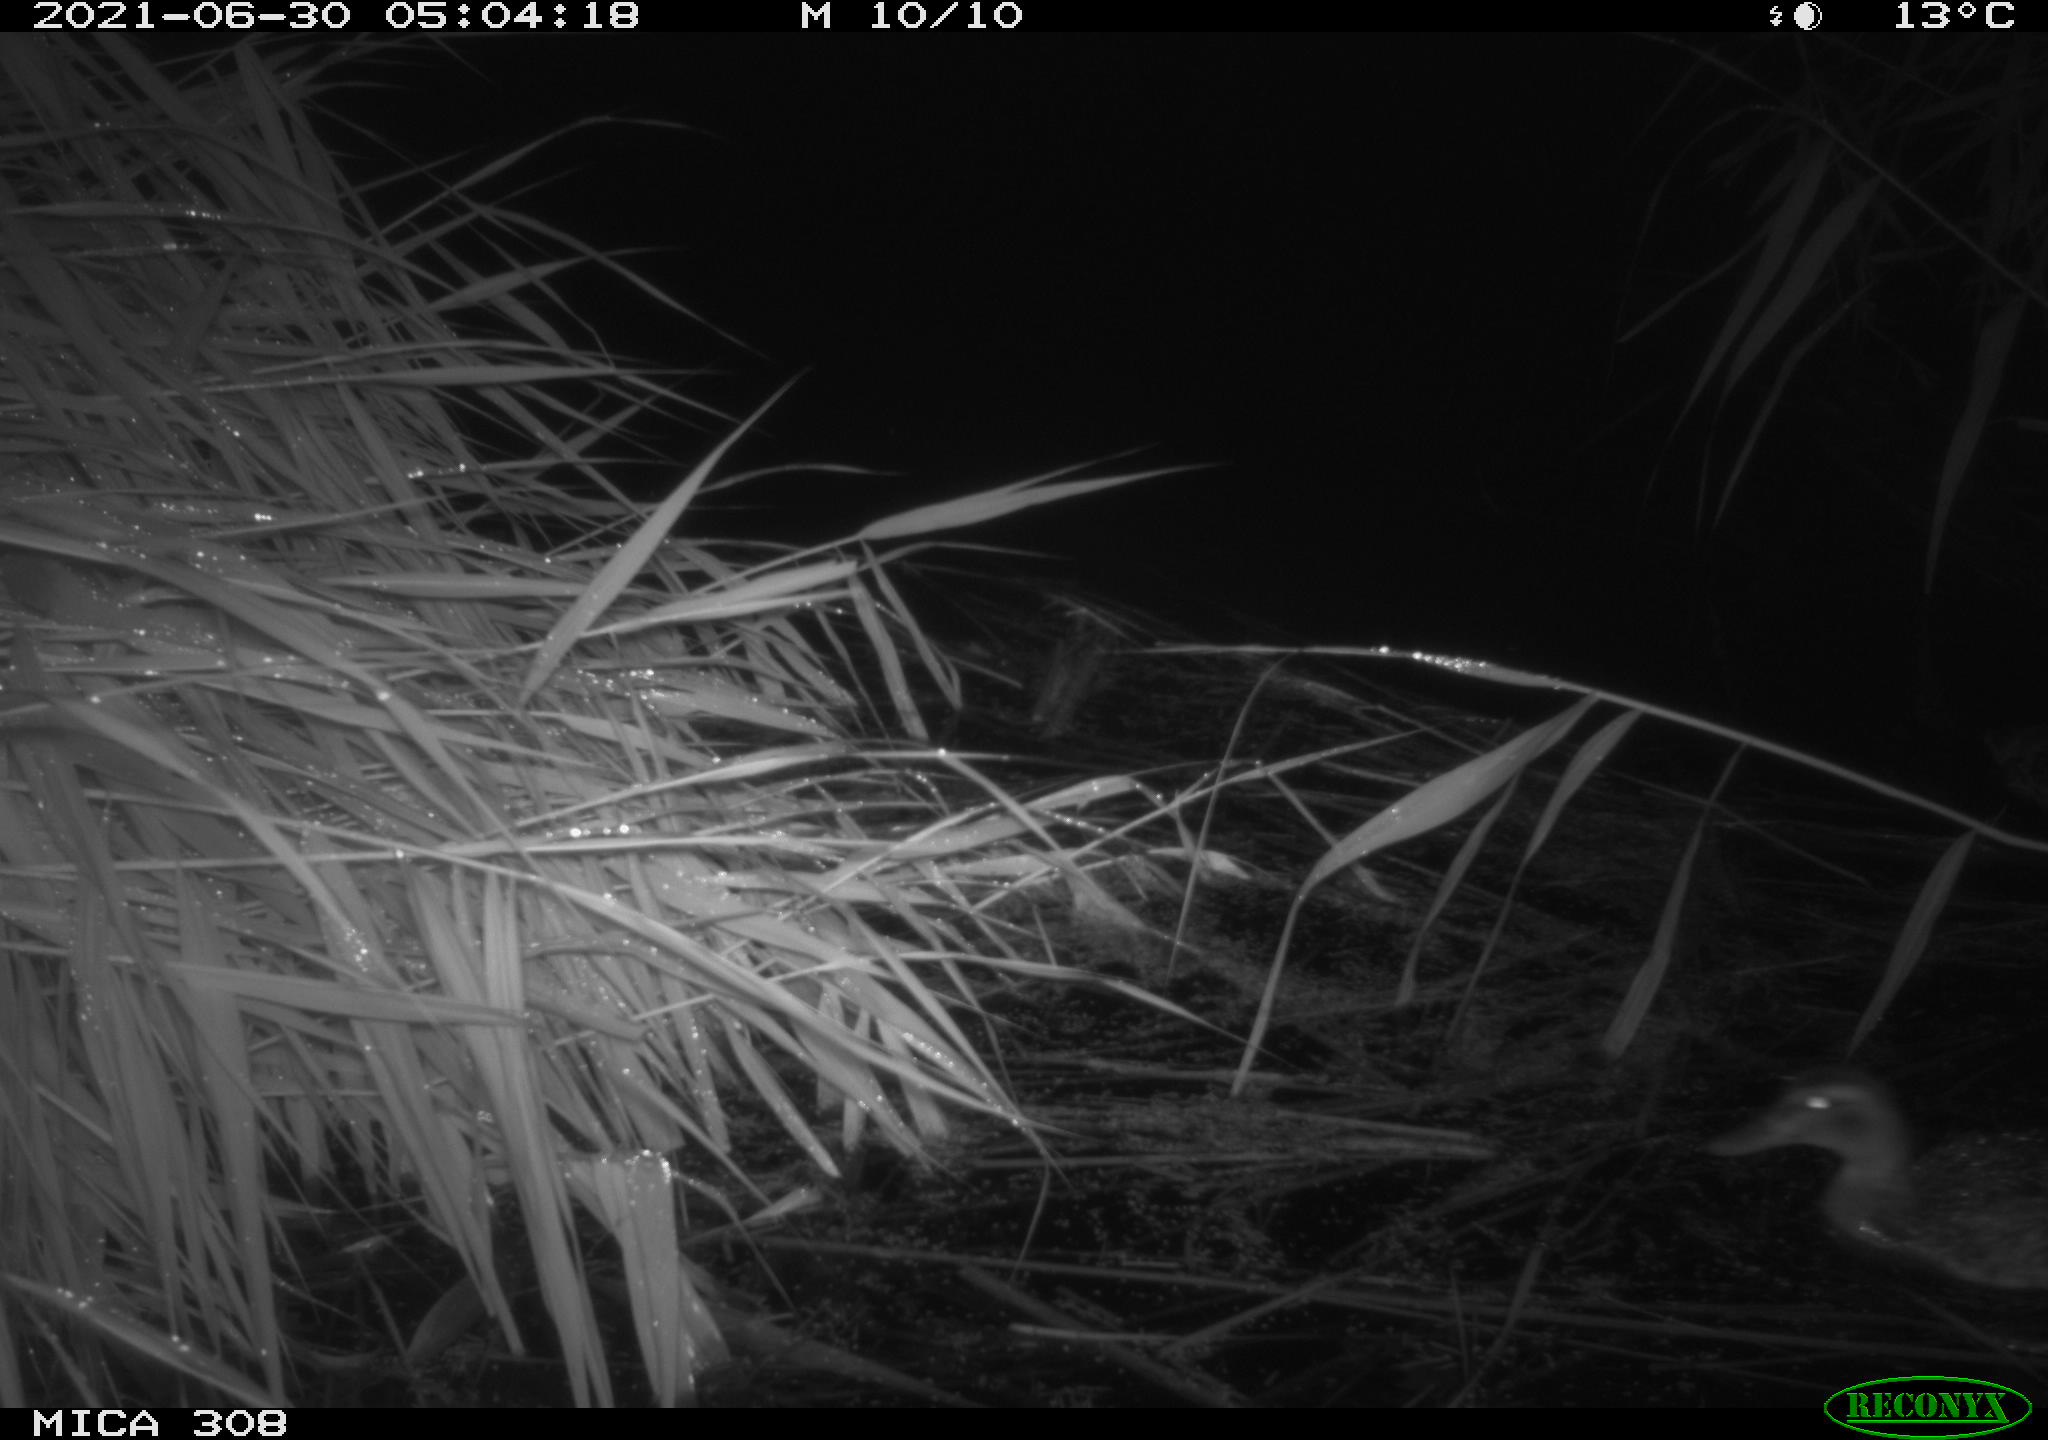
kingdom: Animalia
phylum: Chordata
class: Aves
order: Anseriformes
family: Anatidae
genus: Anas
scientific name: Anas platyrhynchos
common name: Mallard
